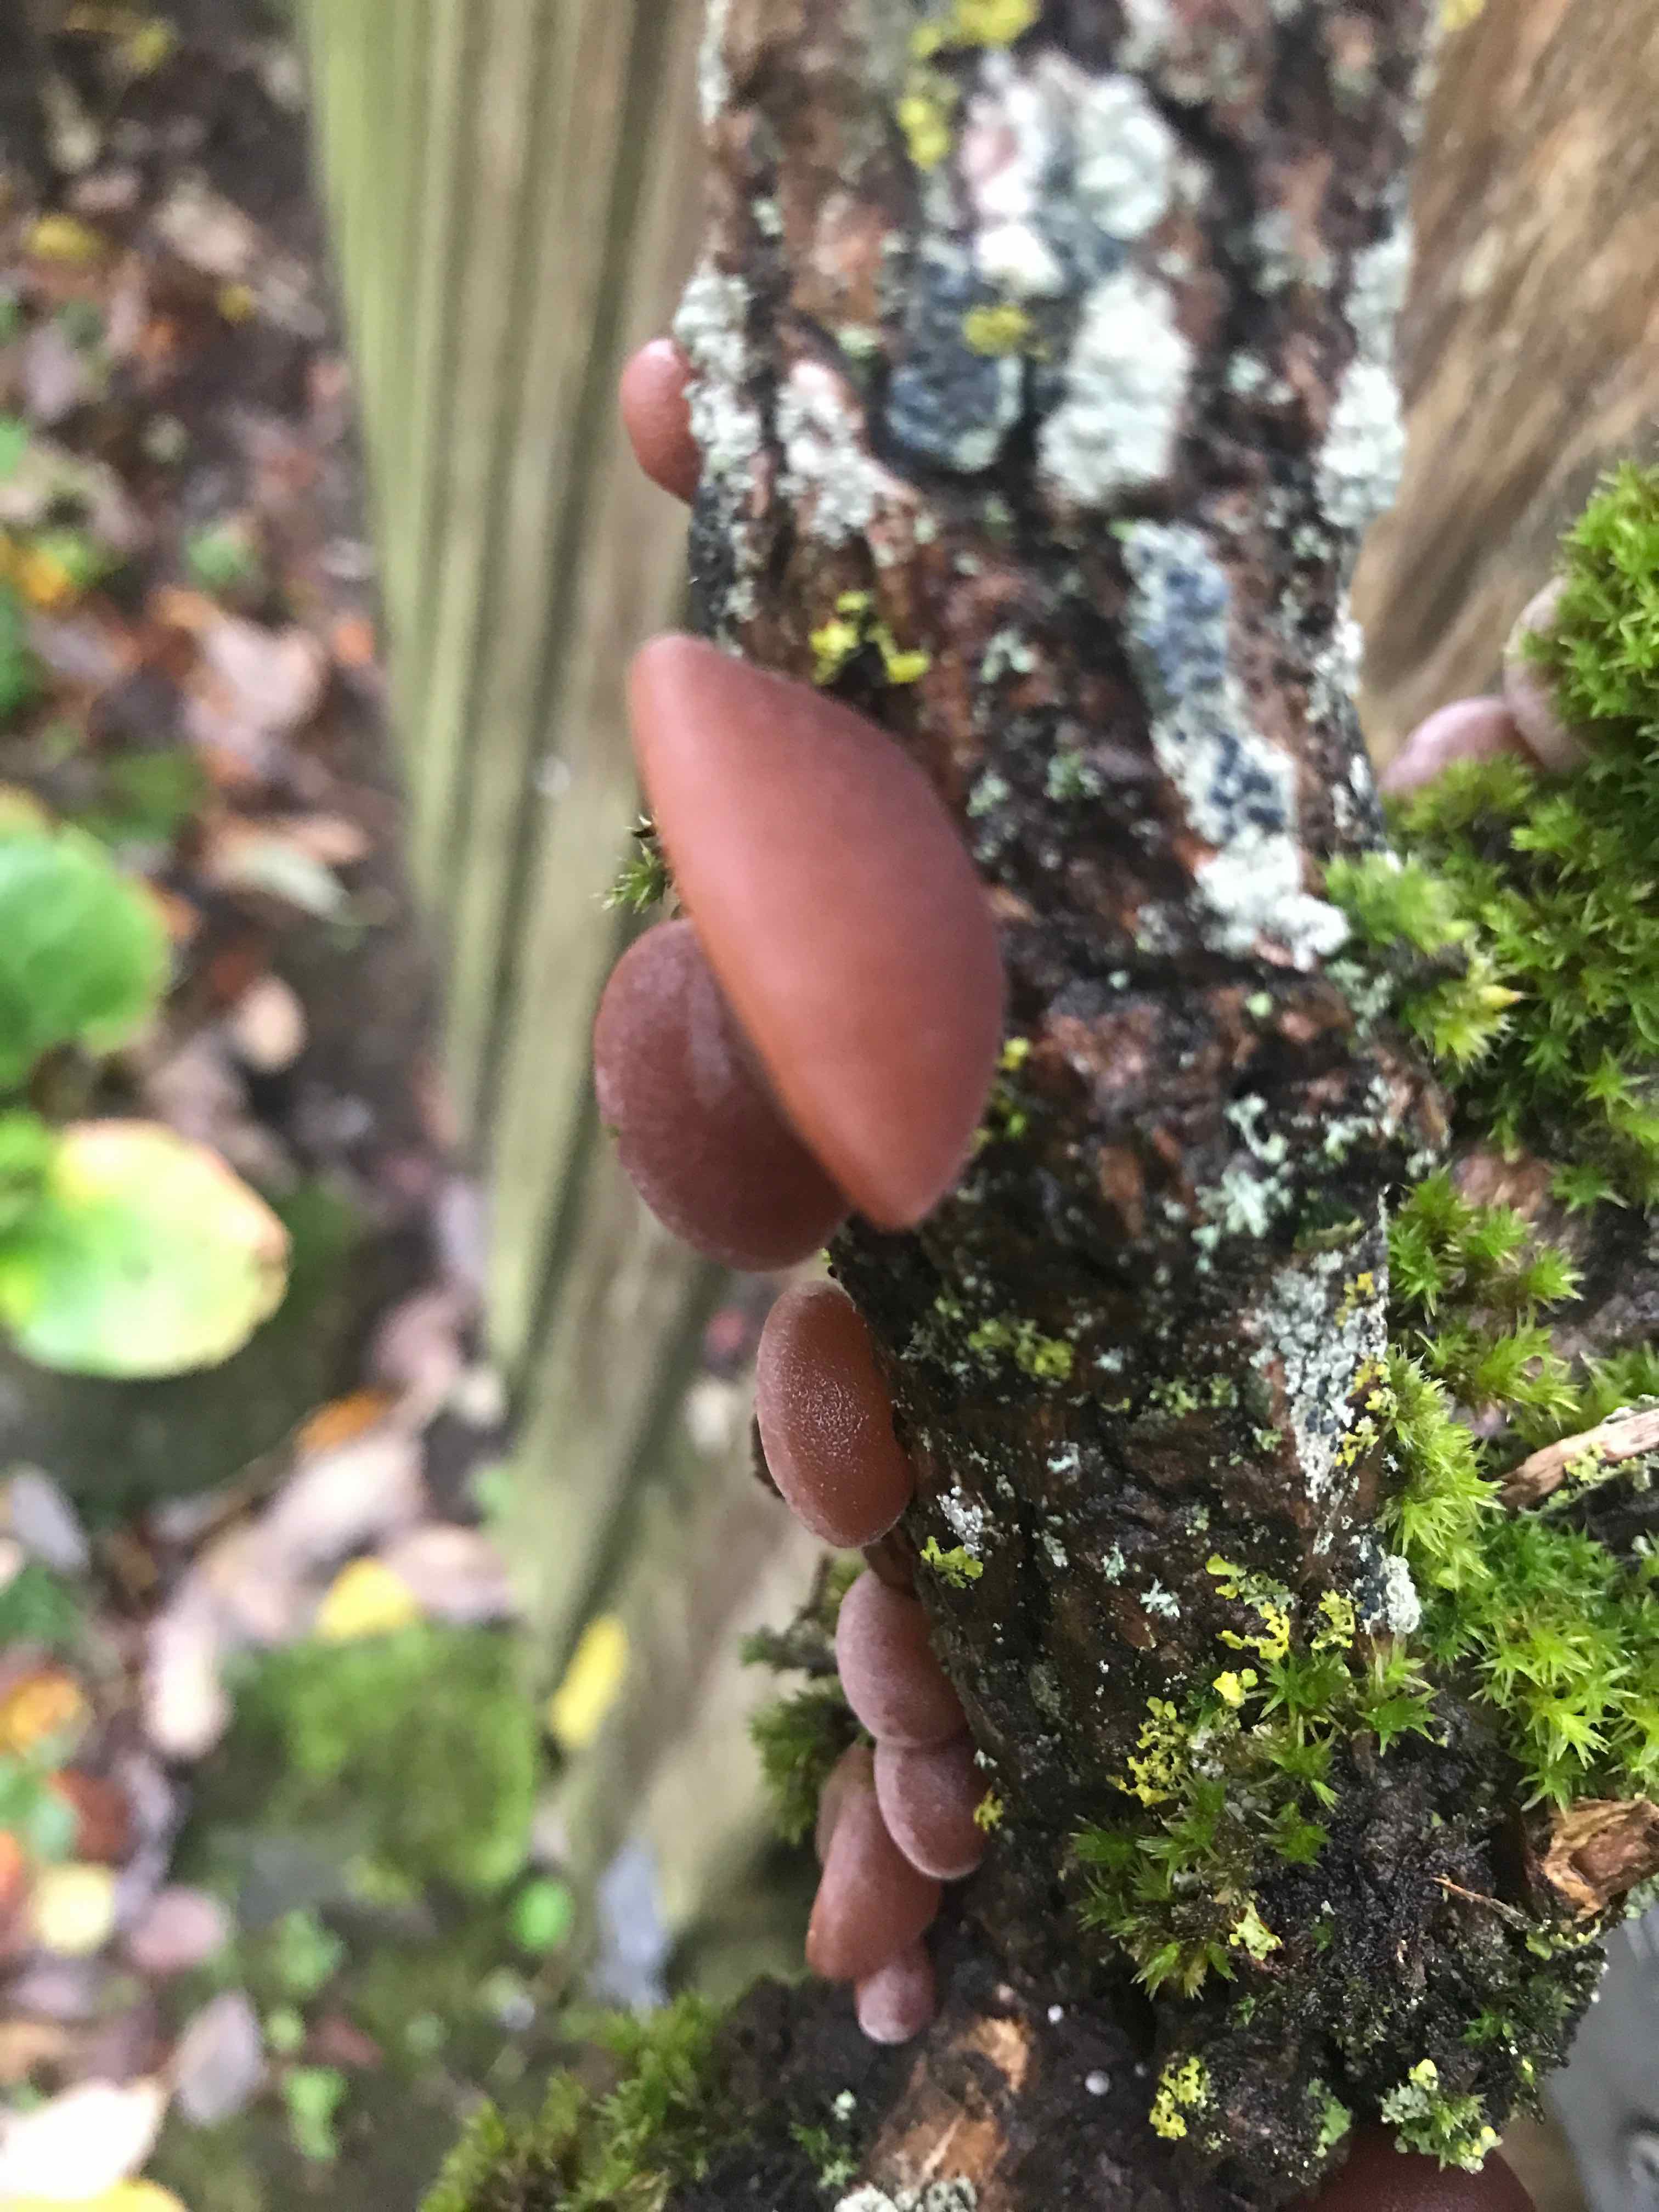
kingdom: Fungi
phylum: Basidiomycota
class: Agaricomycetes
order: Auriculariales
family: Auriculariaceae
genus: Auricularia
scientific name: Auricularia auricula-judae
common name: almindelig judasøre
